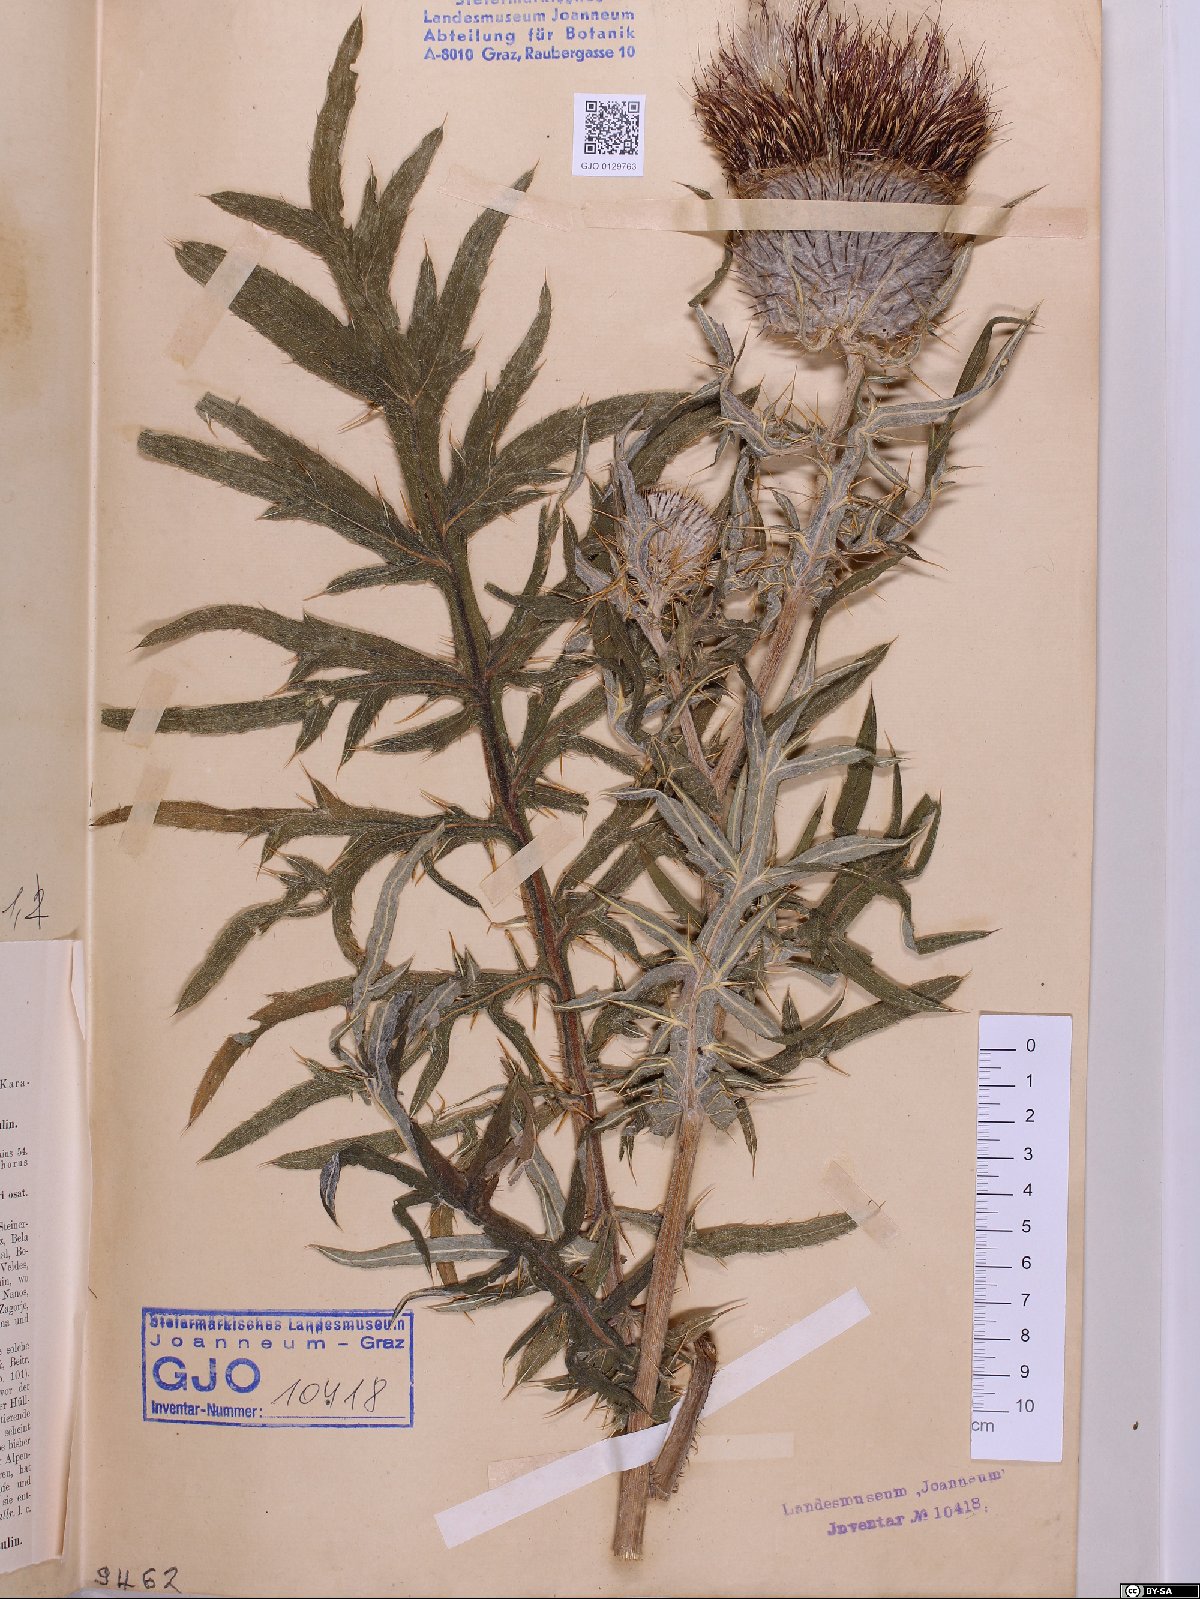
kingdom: Plantae
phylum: Tracheophyta
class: Magnoliopsida
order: Asterales
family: Asteraceae
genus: Lophiolepis
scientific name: Lophiolepis eriophora
